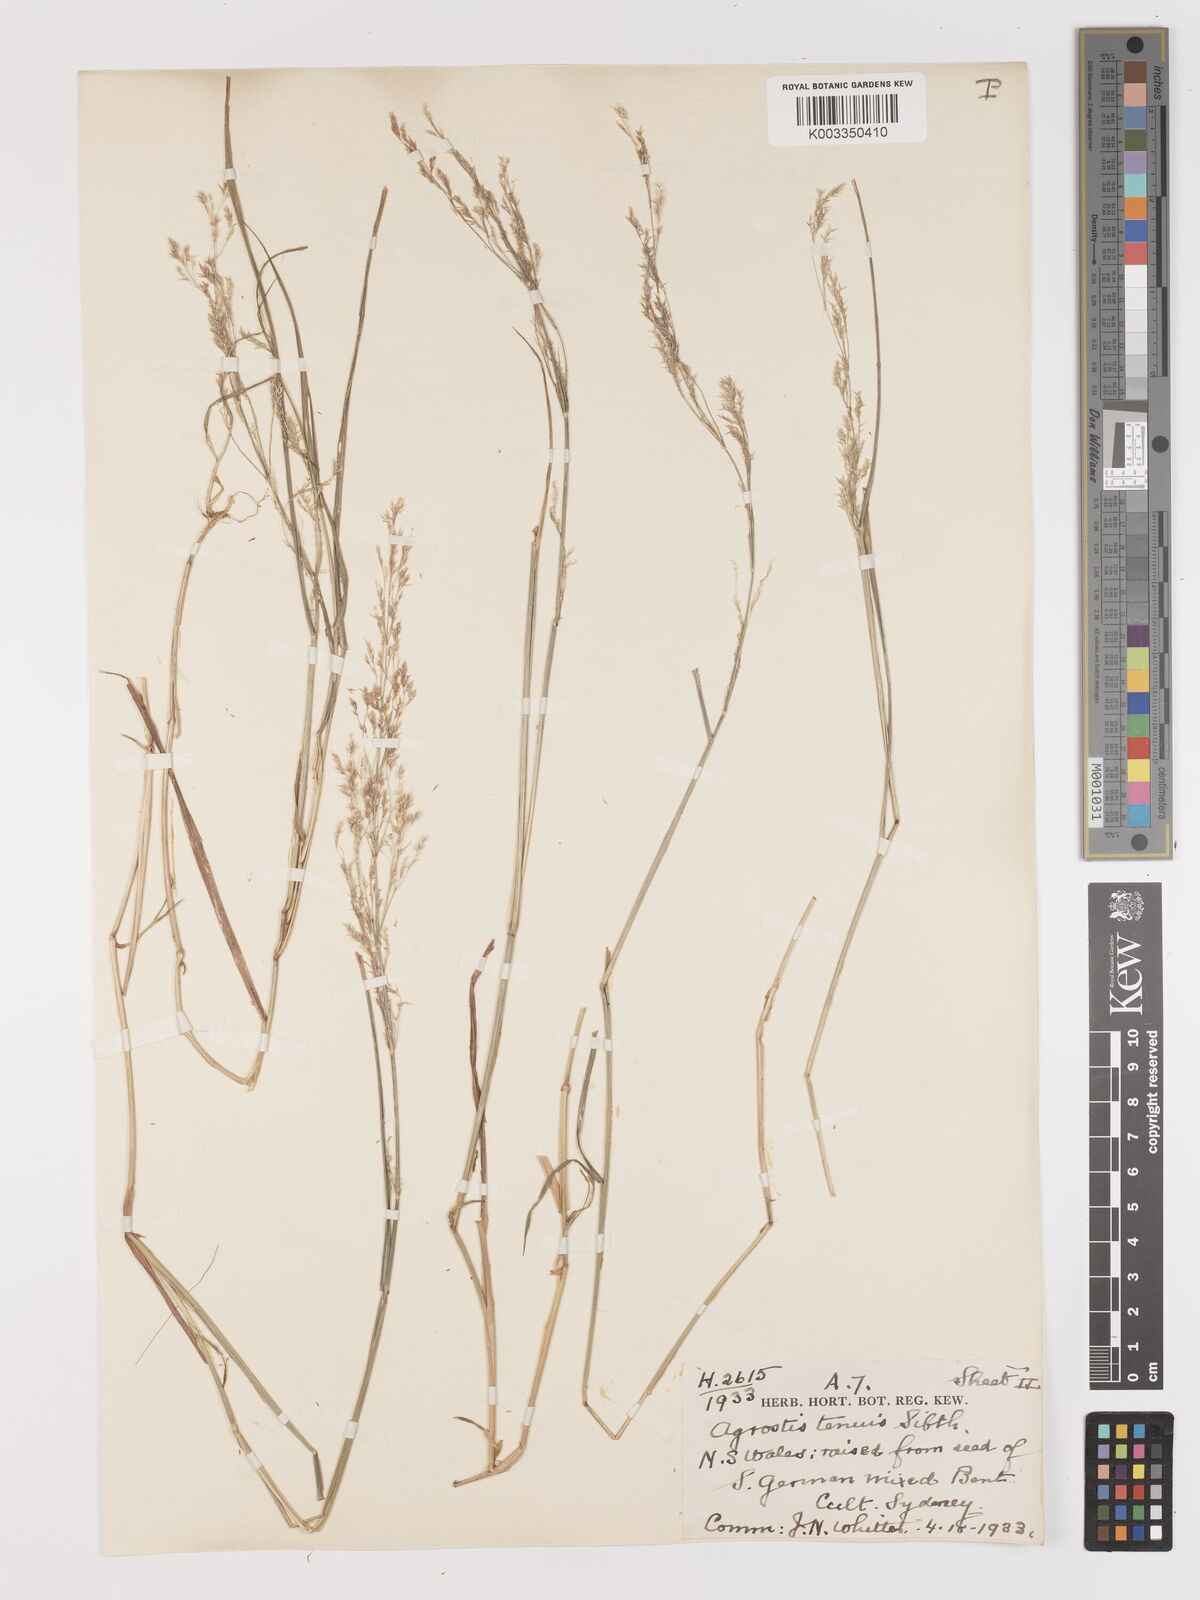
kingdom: Plantae
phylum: Tracheophyta
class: Liliopsida
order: Poales
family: Poaceae
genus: Agrostis
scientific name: Agrostis capillaris
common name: Colonial bentgrass
